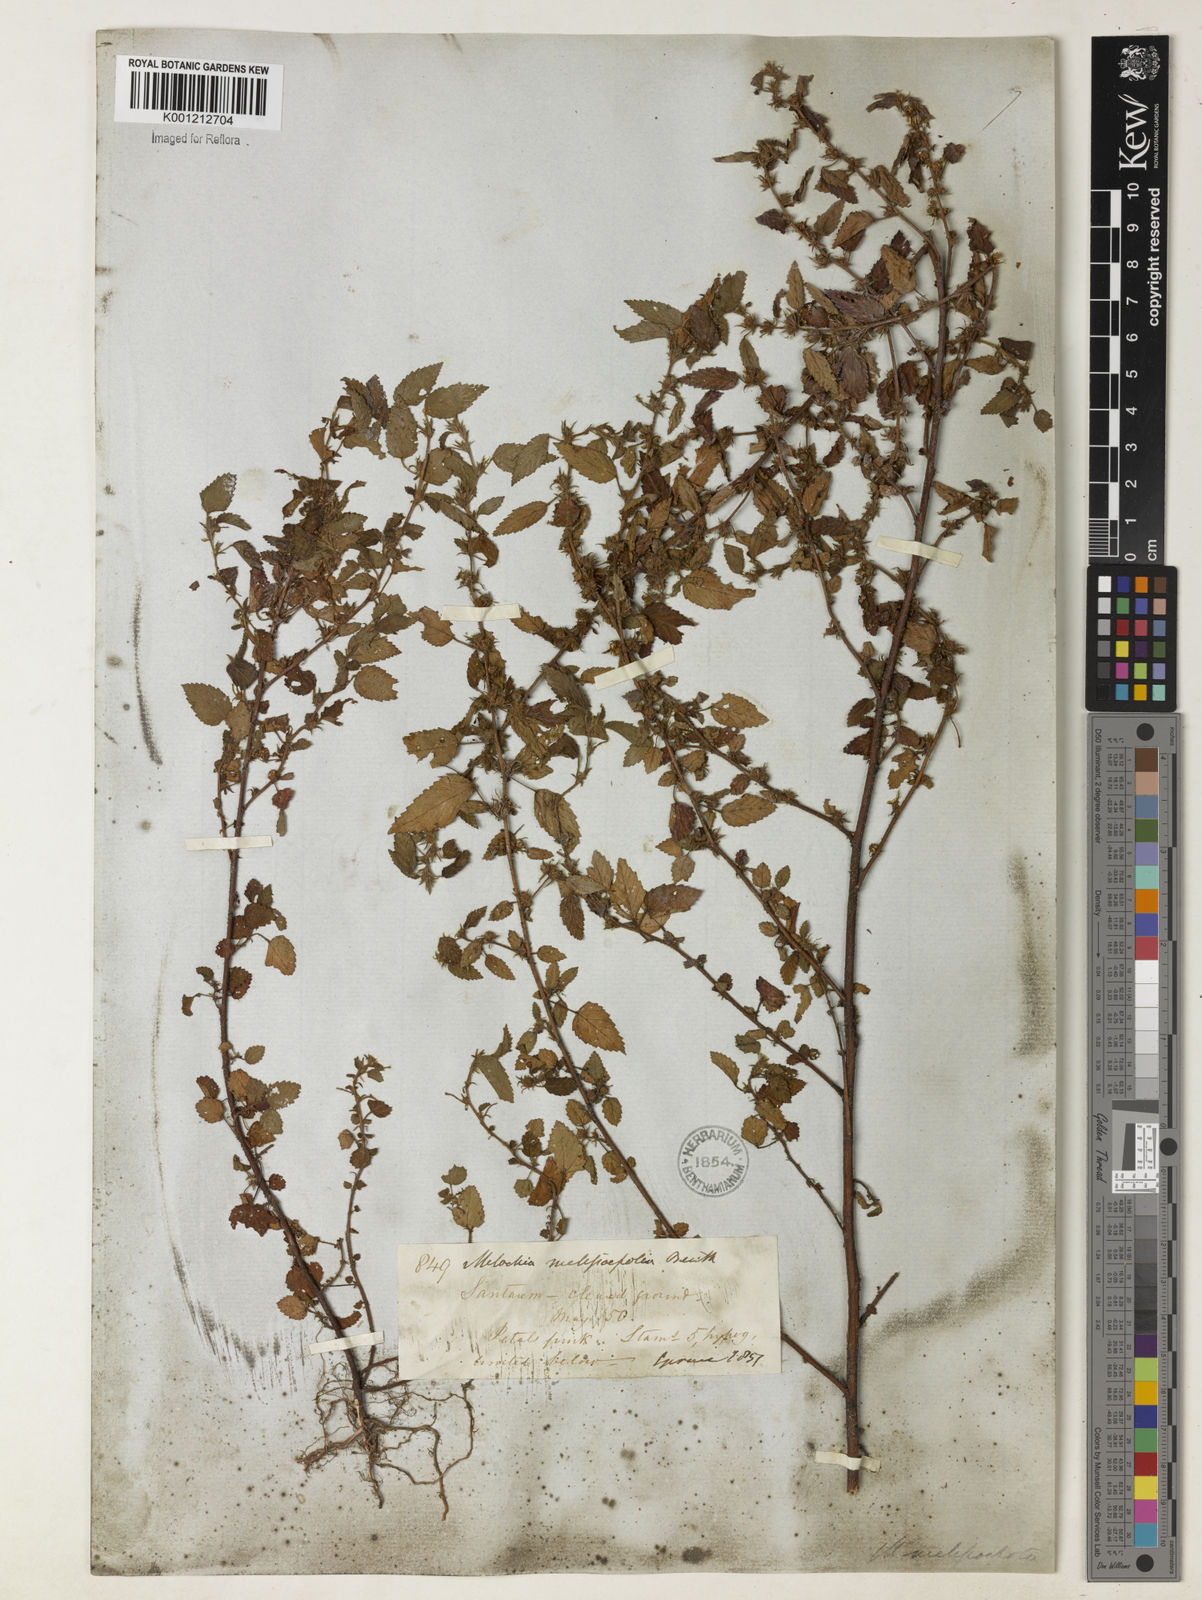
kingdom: Plantae
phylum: Tracheophyta
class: Magnoliopsida
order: Malvales
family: Malvaceae
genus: Melochia
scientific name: Melochia melissifolia
